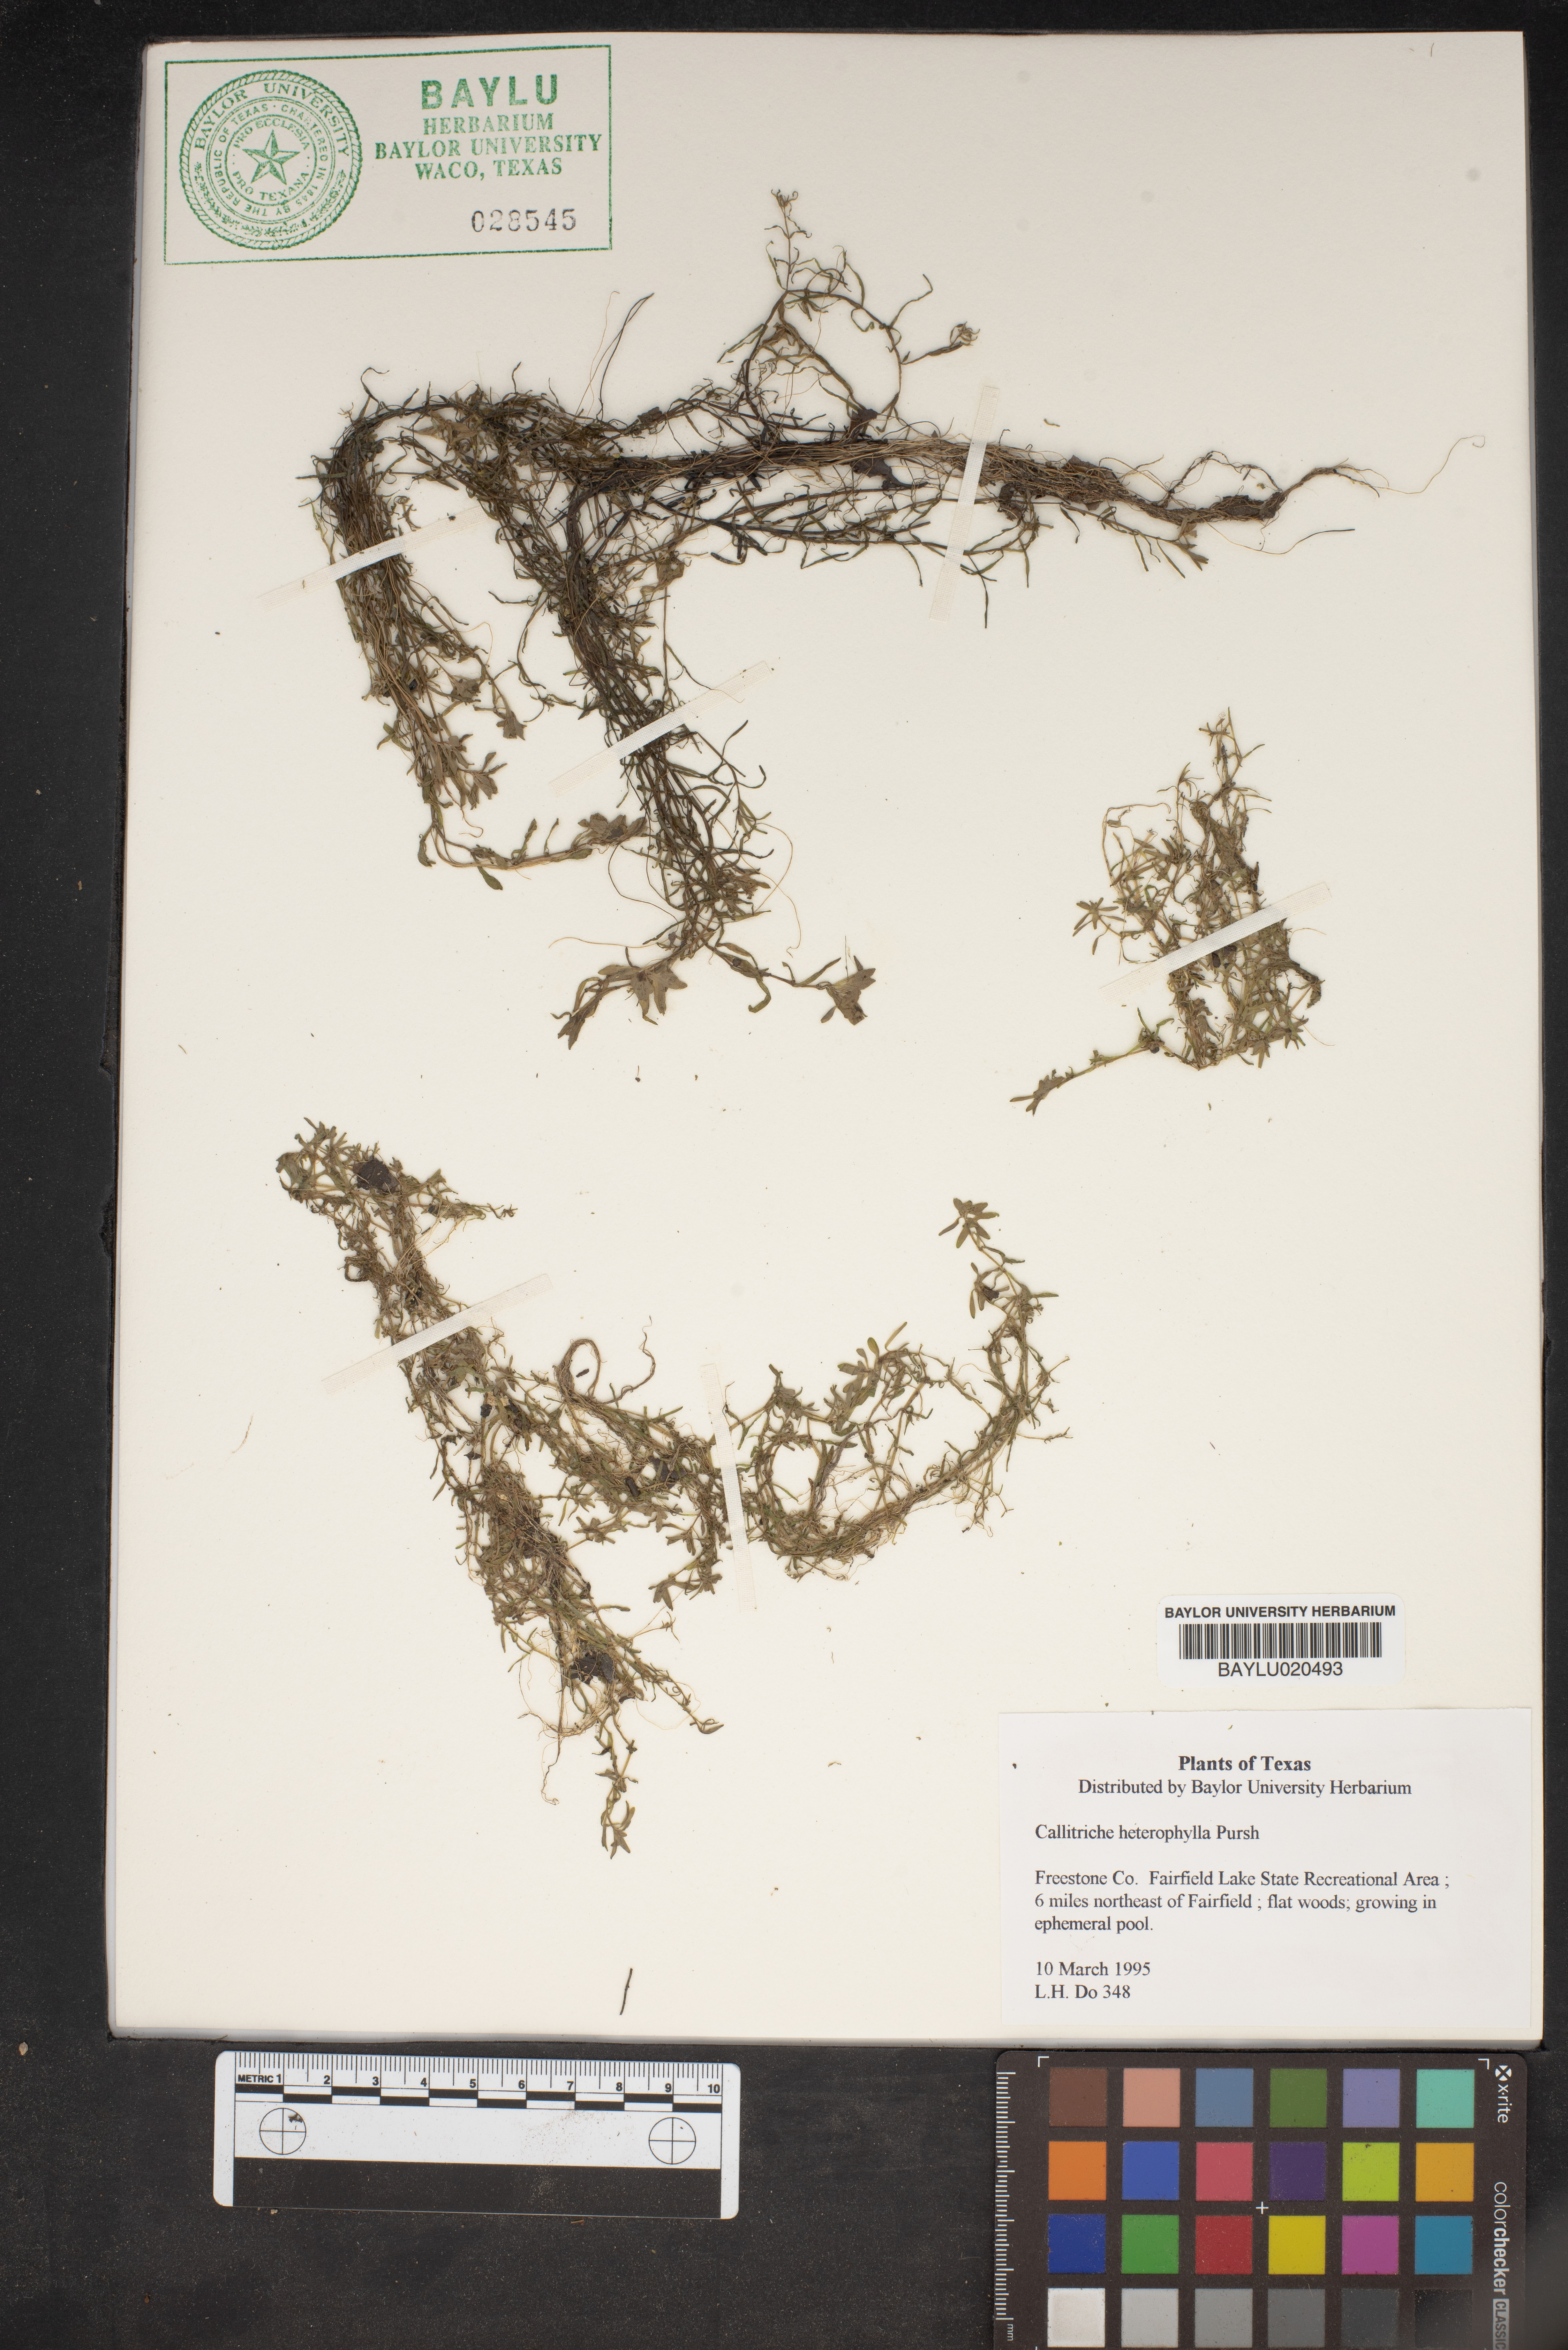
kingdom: Plantae
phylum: Tracheophyta
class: Magnoliopsida
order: Lamiales
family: Plantaginaceae
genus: Callitriche
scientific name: Callitriche heterophylla
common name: Two-headed water-starwort
